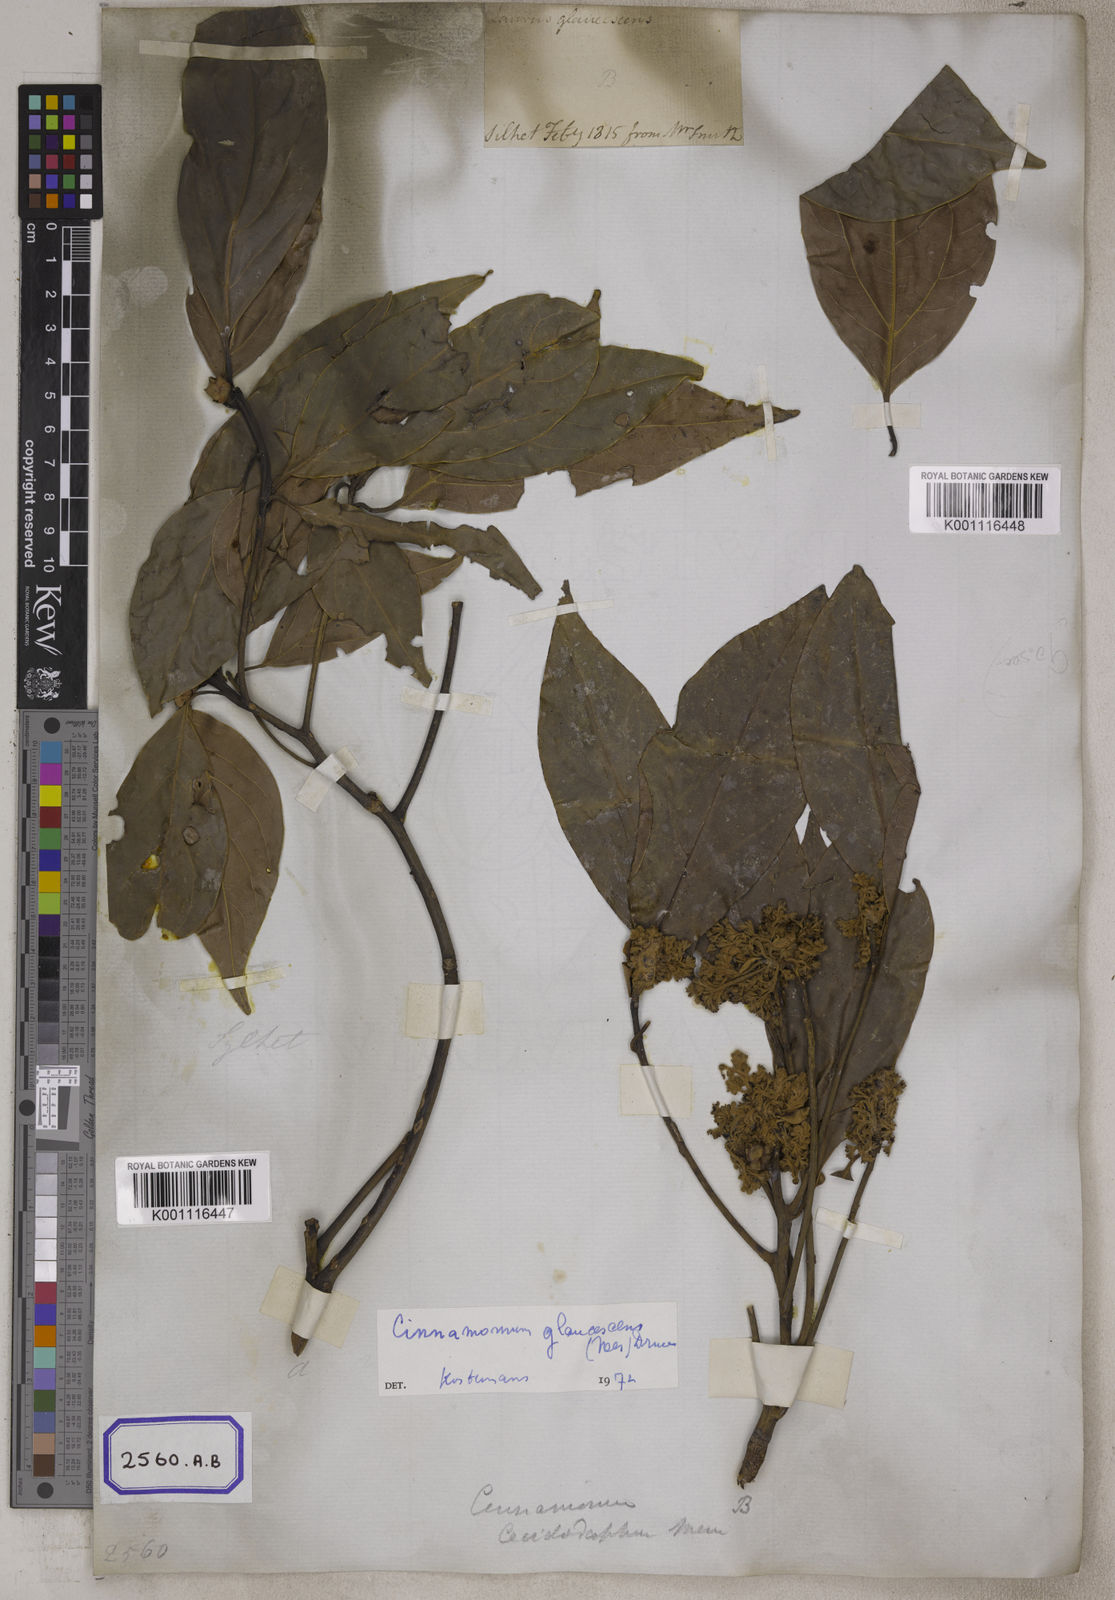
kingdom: Plantae
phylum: Tracheophyta
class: Magnoliopsida
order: Laurales
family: Lauraceae
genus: Cinnamomum
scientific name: Cinnamomum glaucescens
